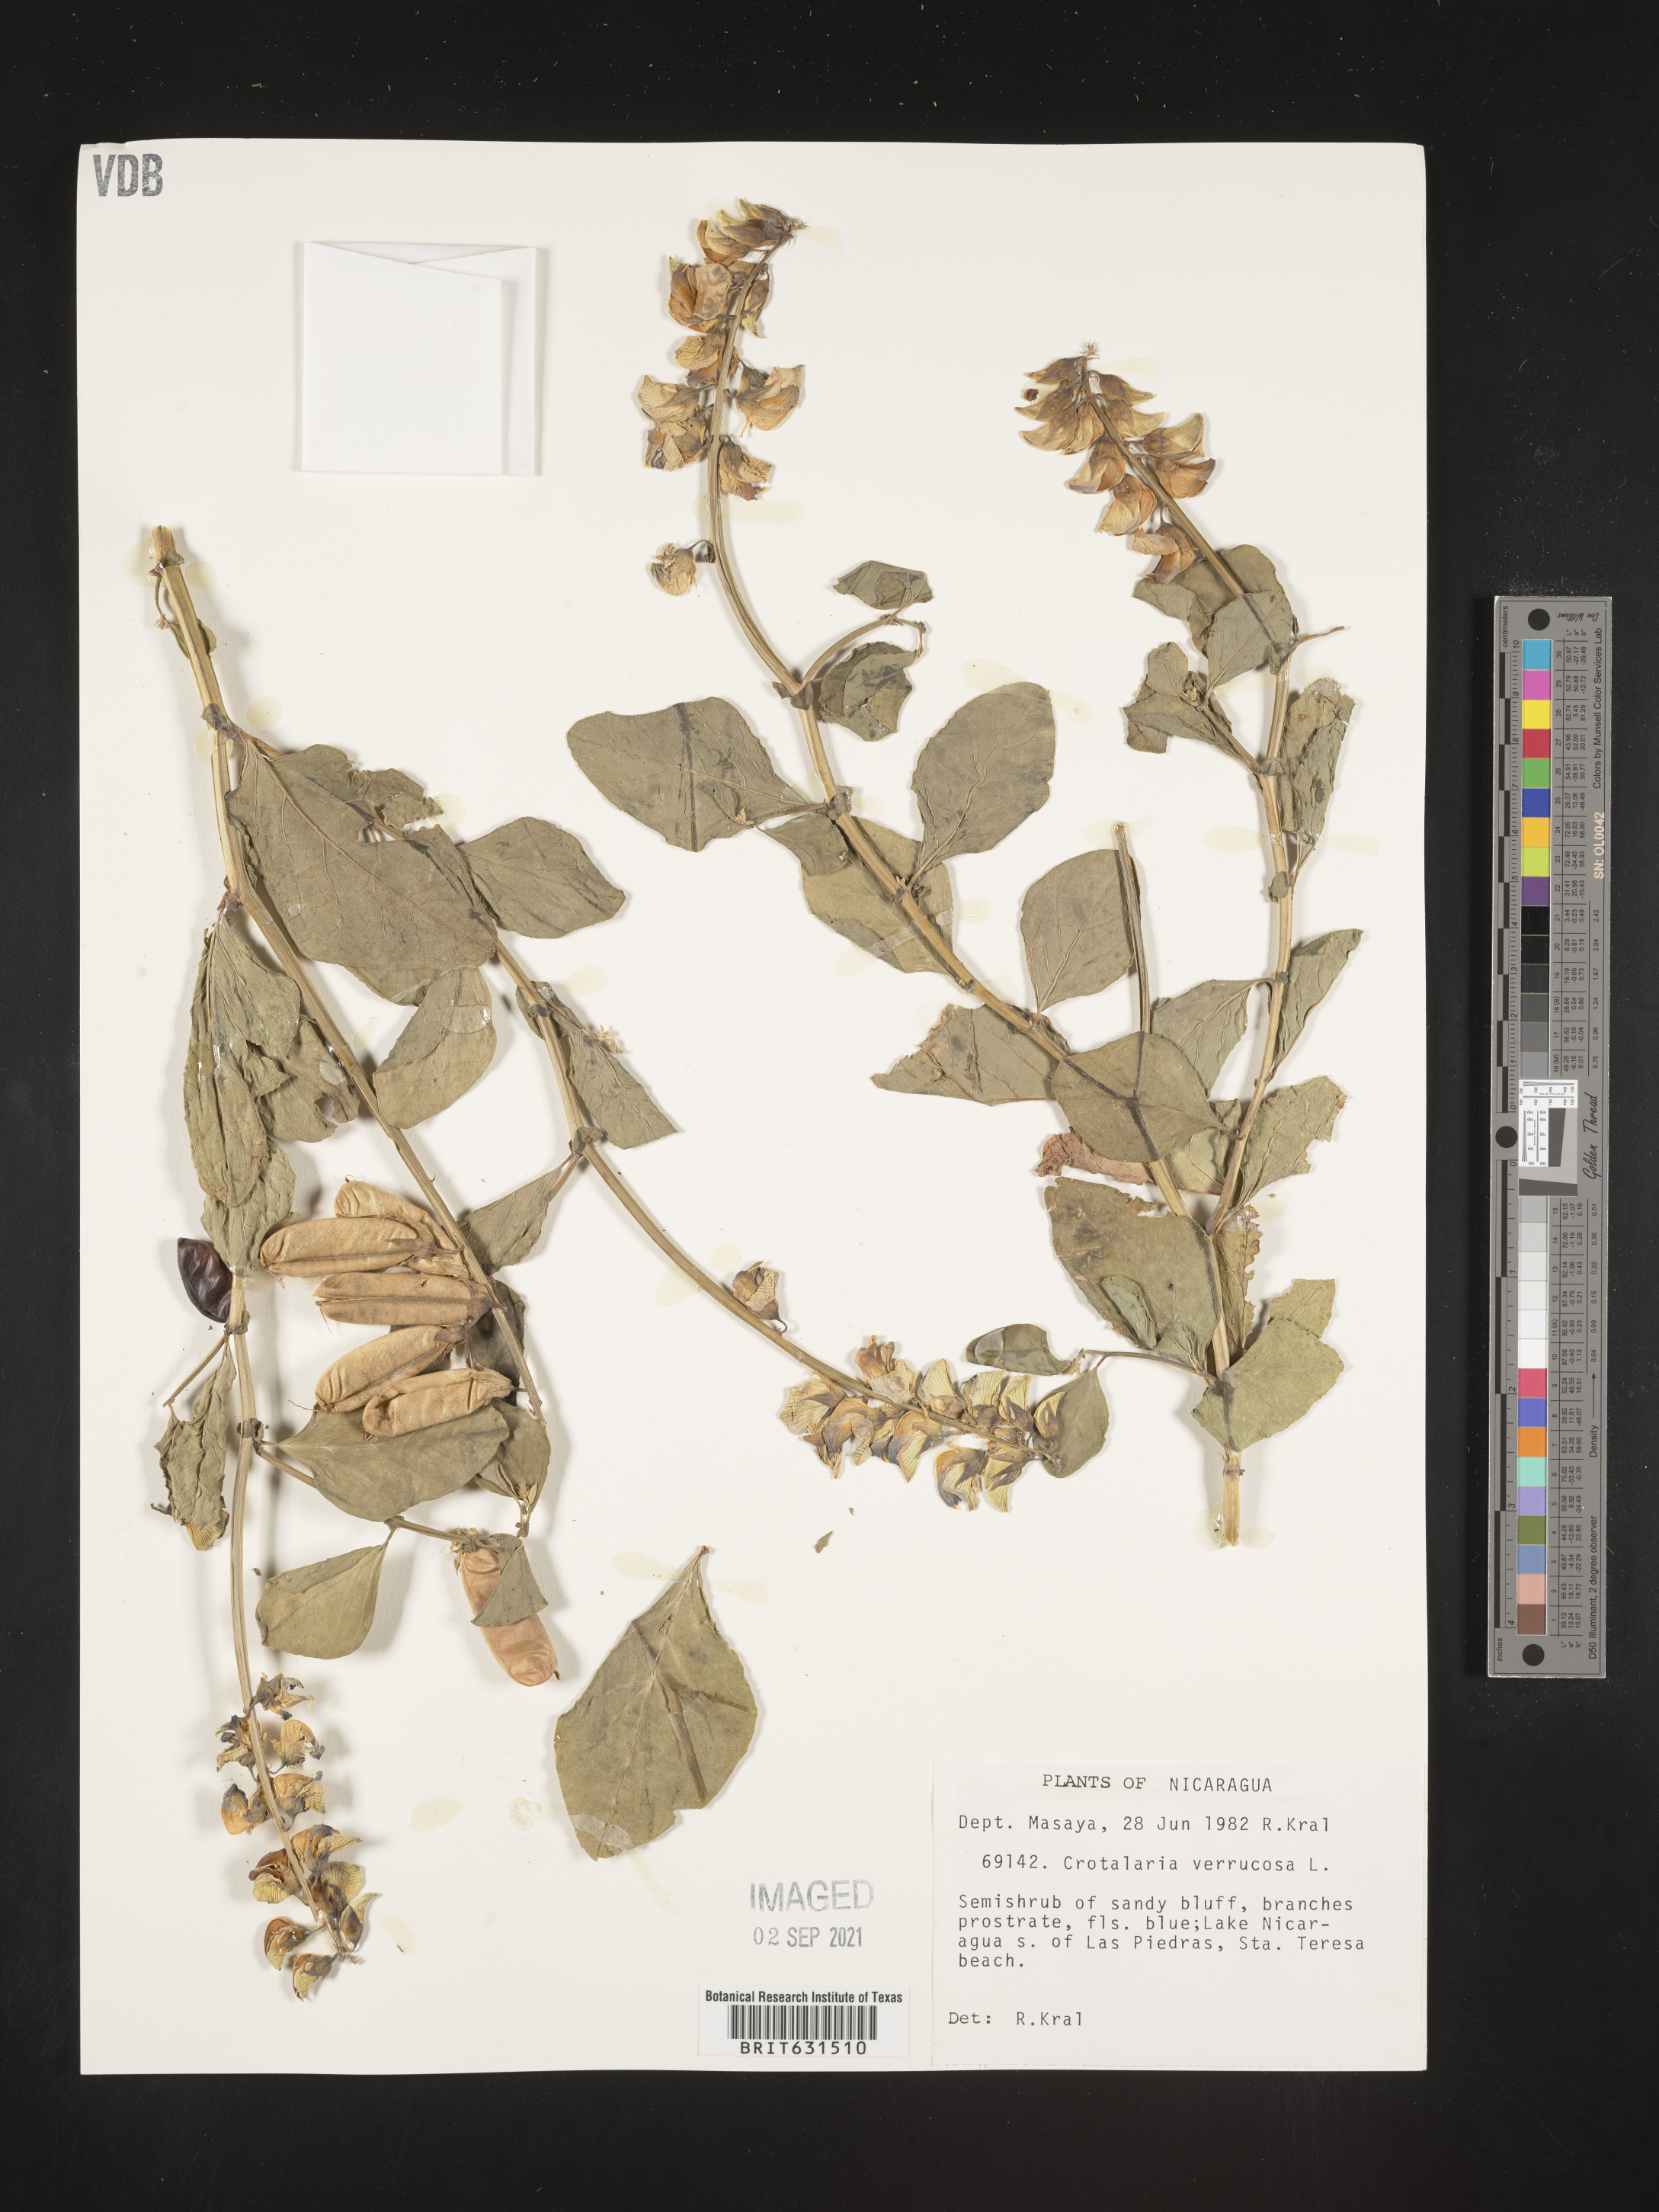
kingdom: Plantae
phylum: Tracheophyta
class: Magnoliopsida
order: Fabales
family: Fabaceae
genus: Crotalaria
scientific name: Crotalaria verrucosa
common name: Blue rattlesnake
